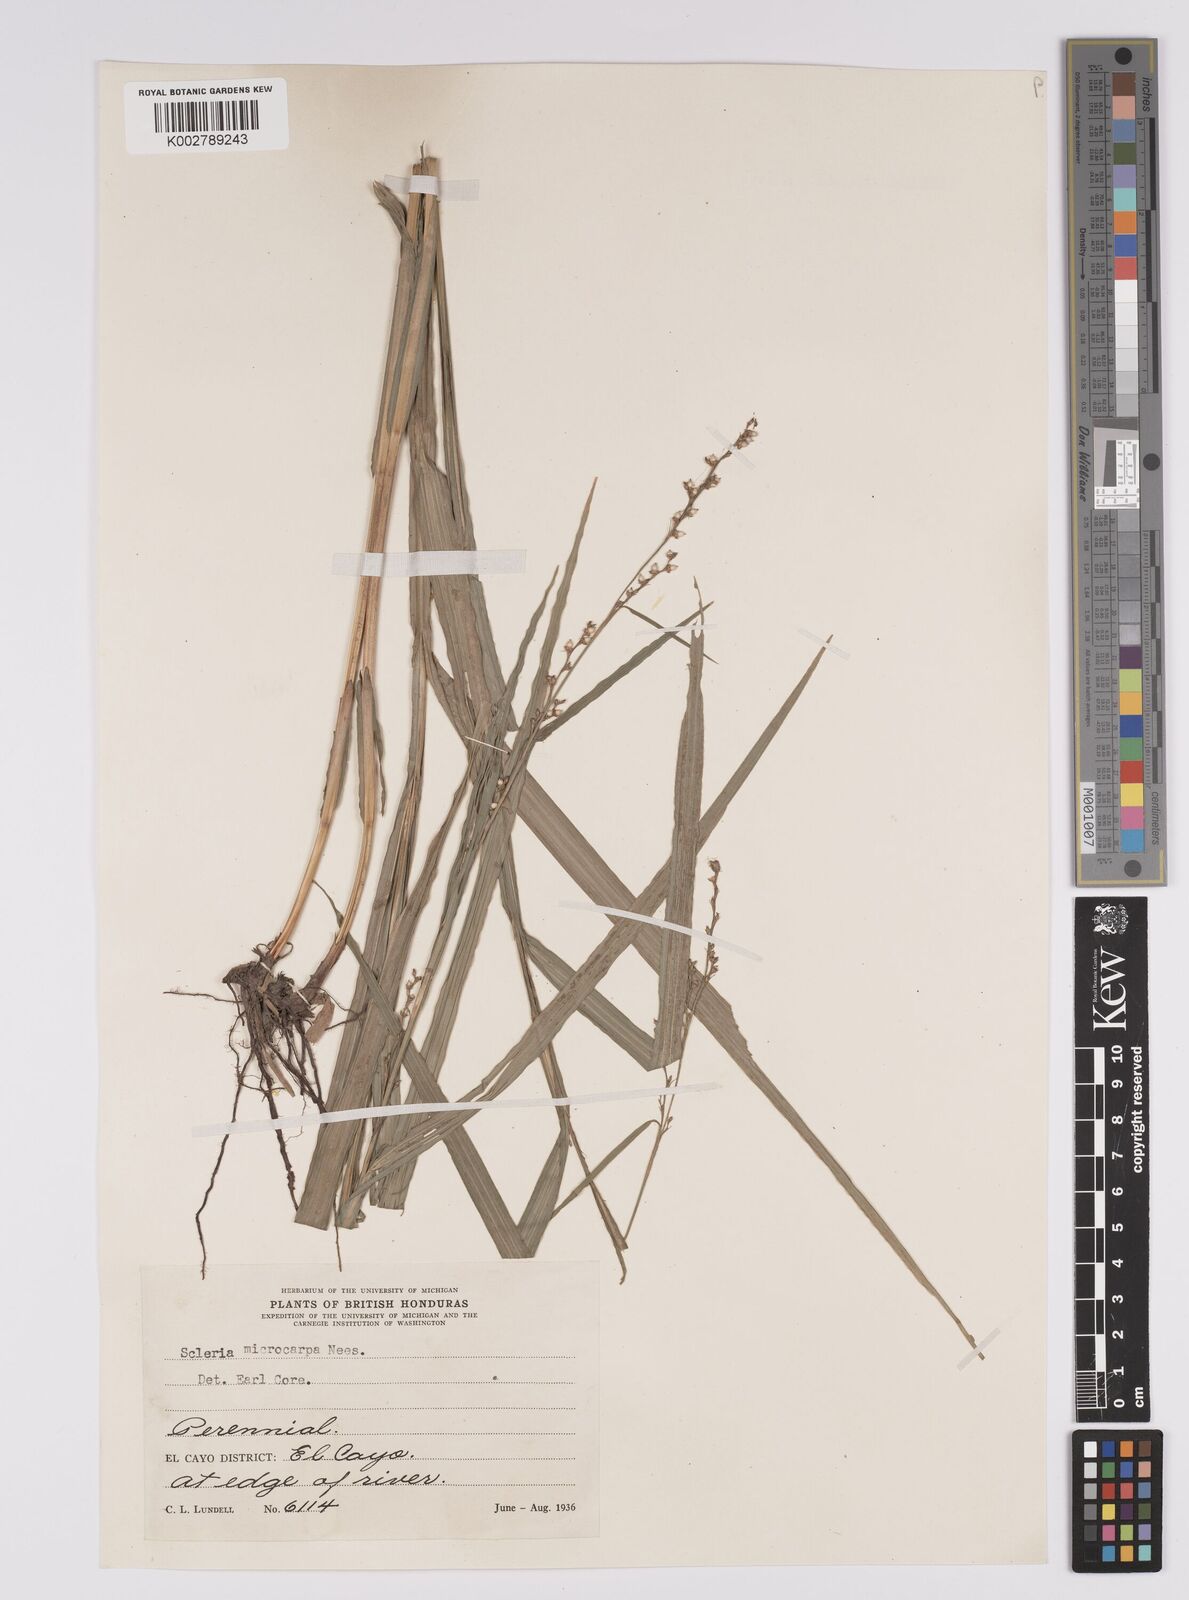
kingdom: Plantae
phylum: Tracheophyta
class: Liliopsida
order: Poales
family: Cyperaceae
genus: Scleria
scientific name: Scleria microcarpa
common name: Tropical nutrush
